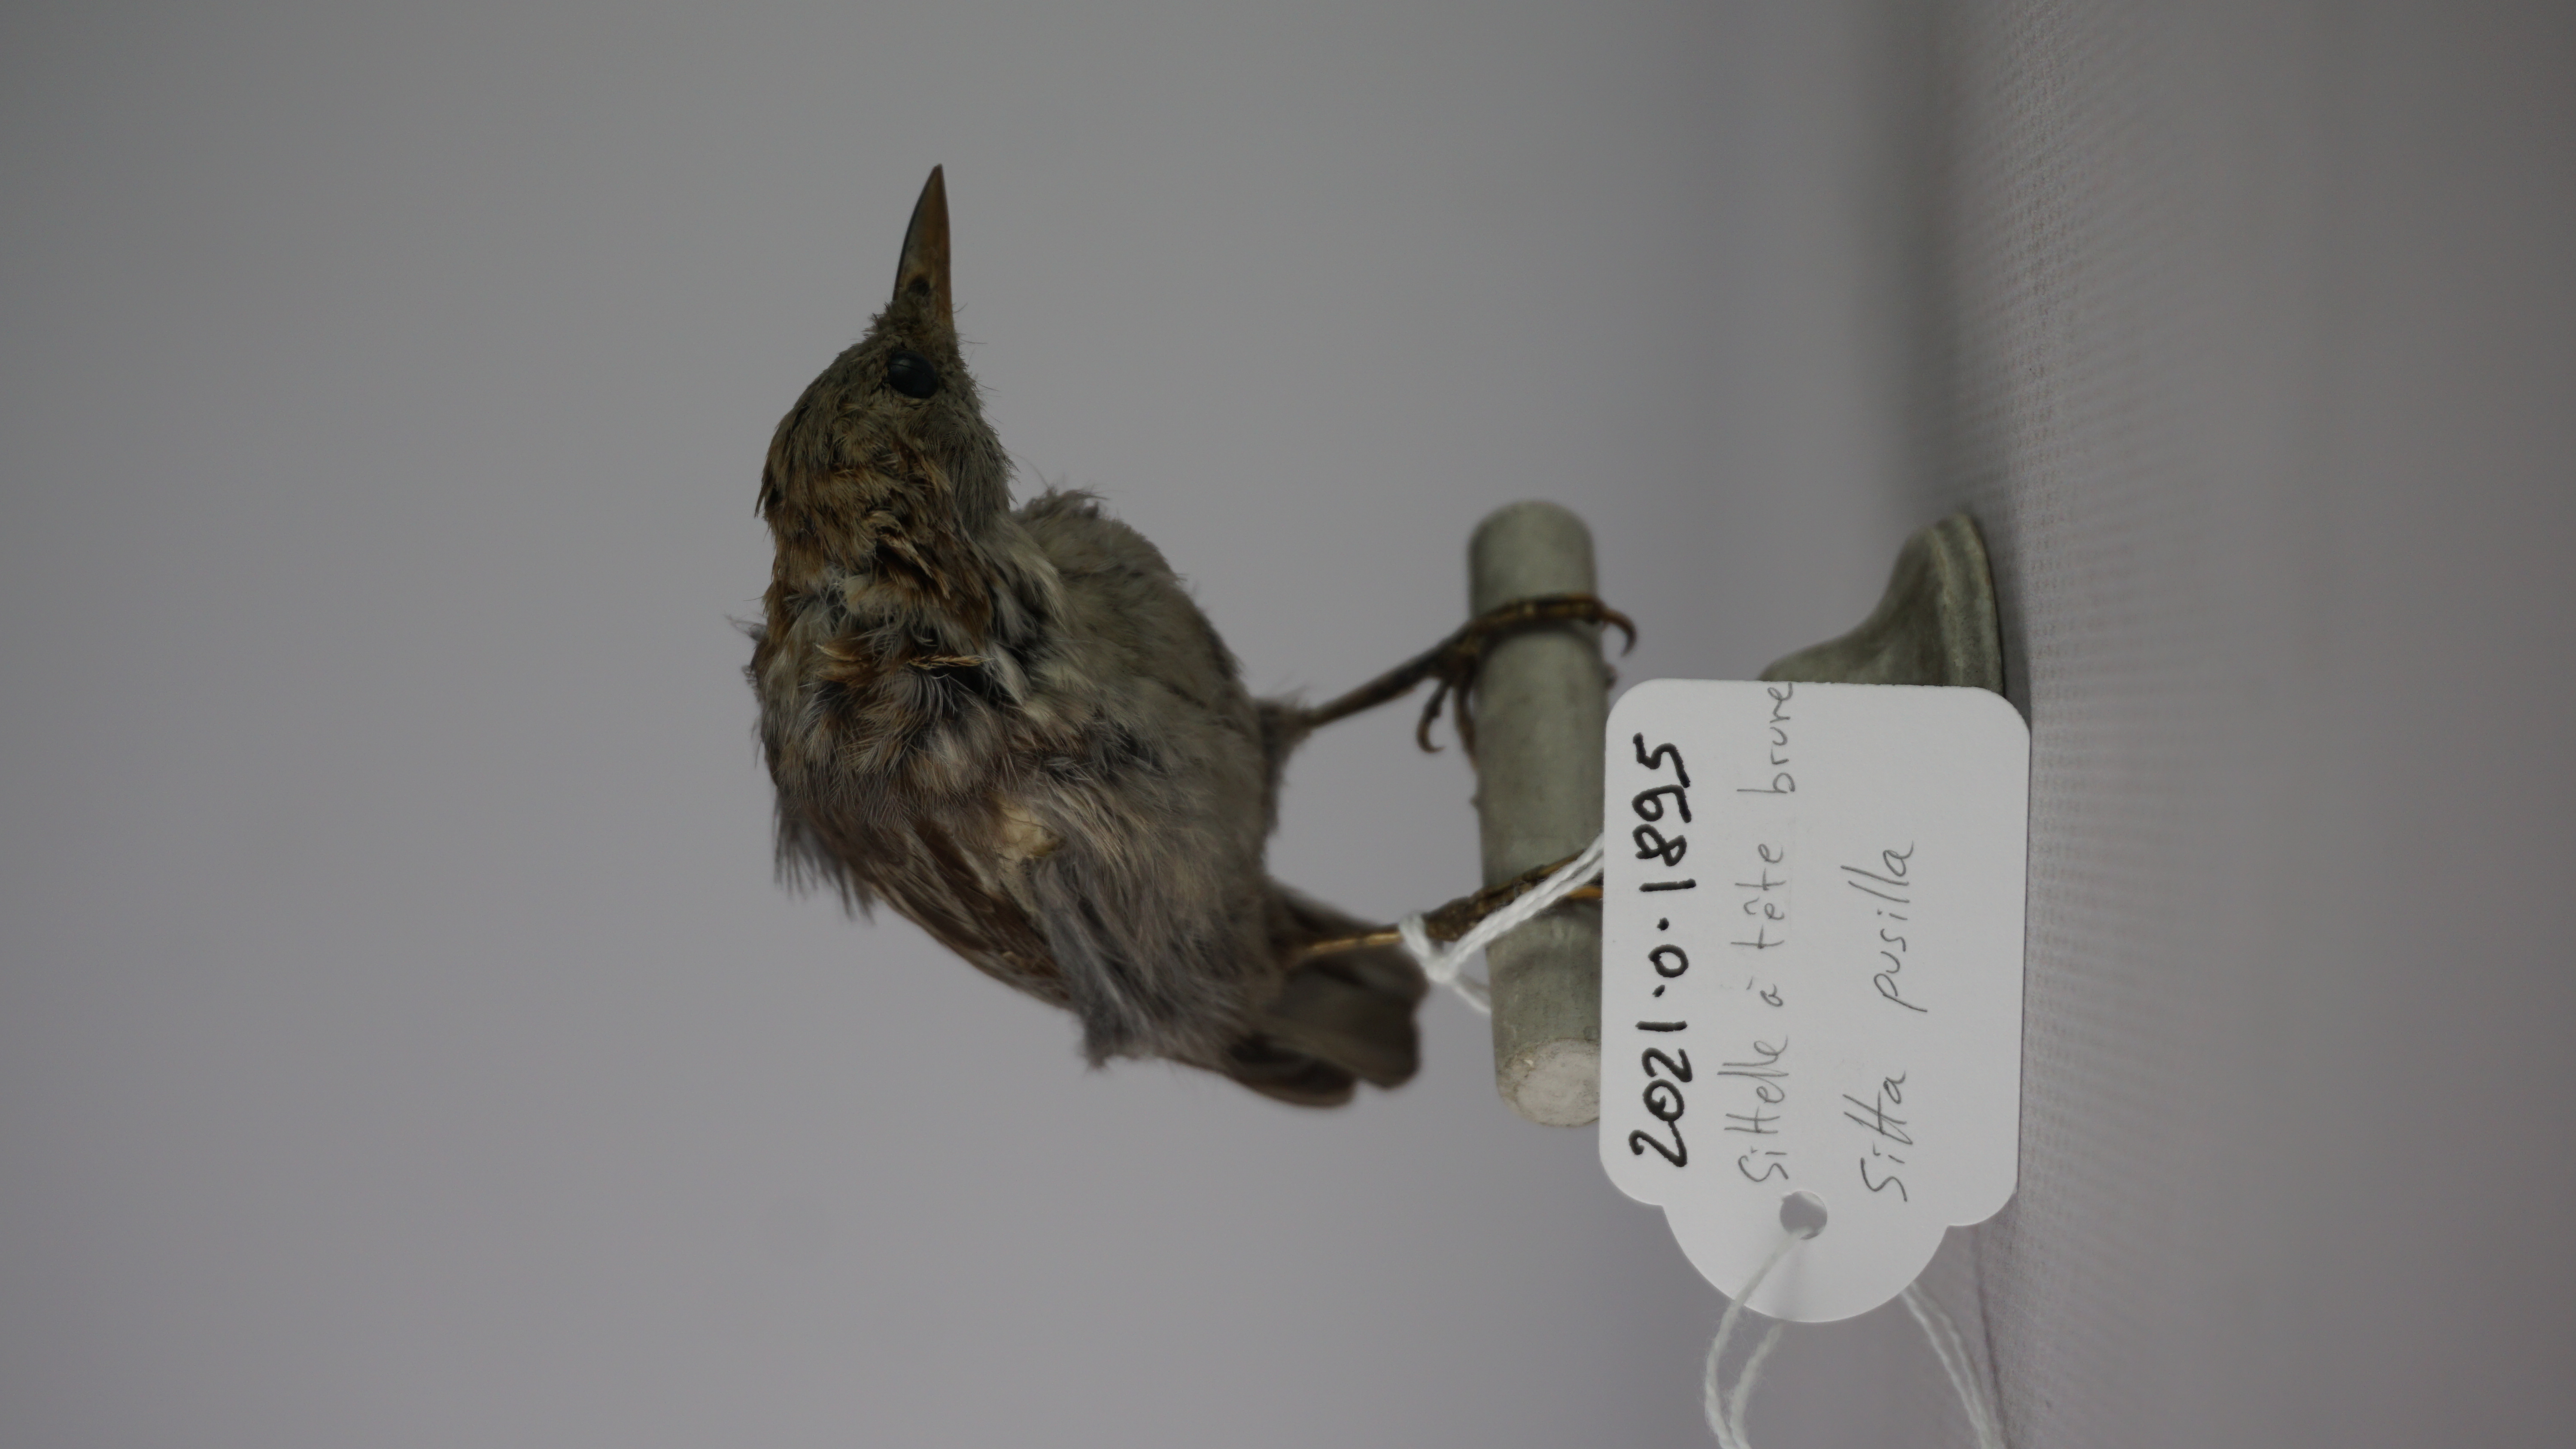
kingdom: Animalia
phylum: Chordata
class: Aves
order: Passeriformes
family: Sittidae
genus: Sitta
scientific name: Sitta pusilla
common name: Brown-headed nuthatch
